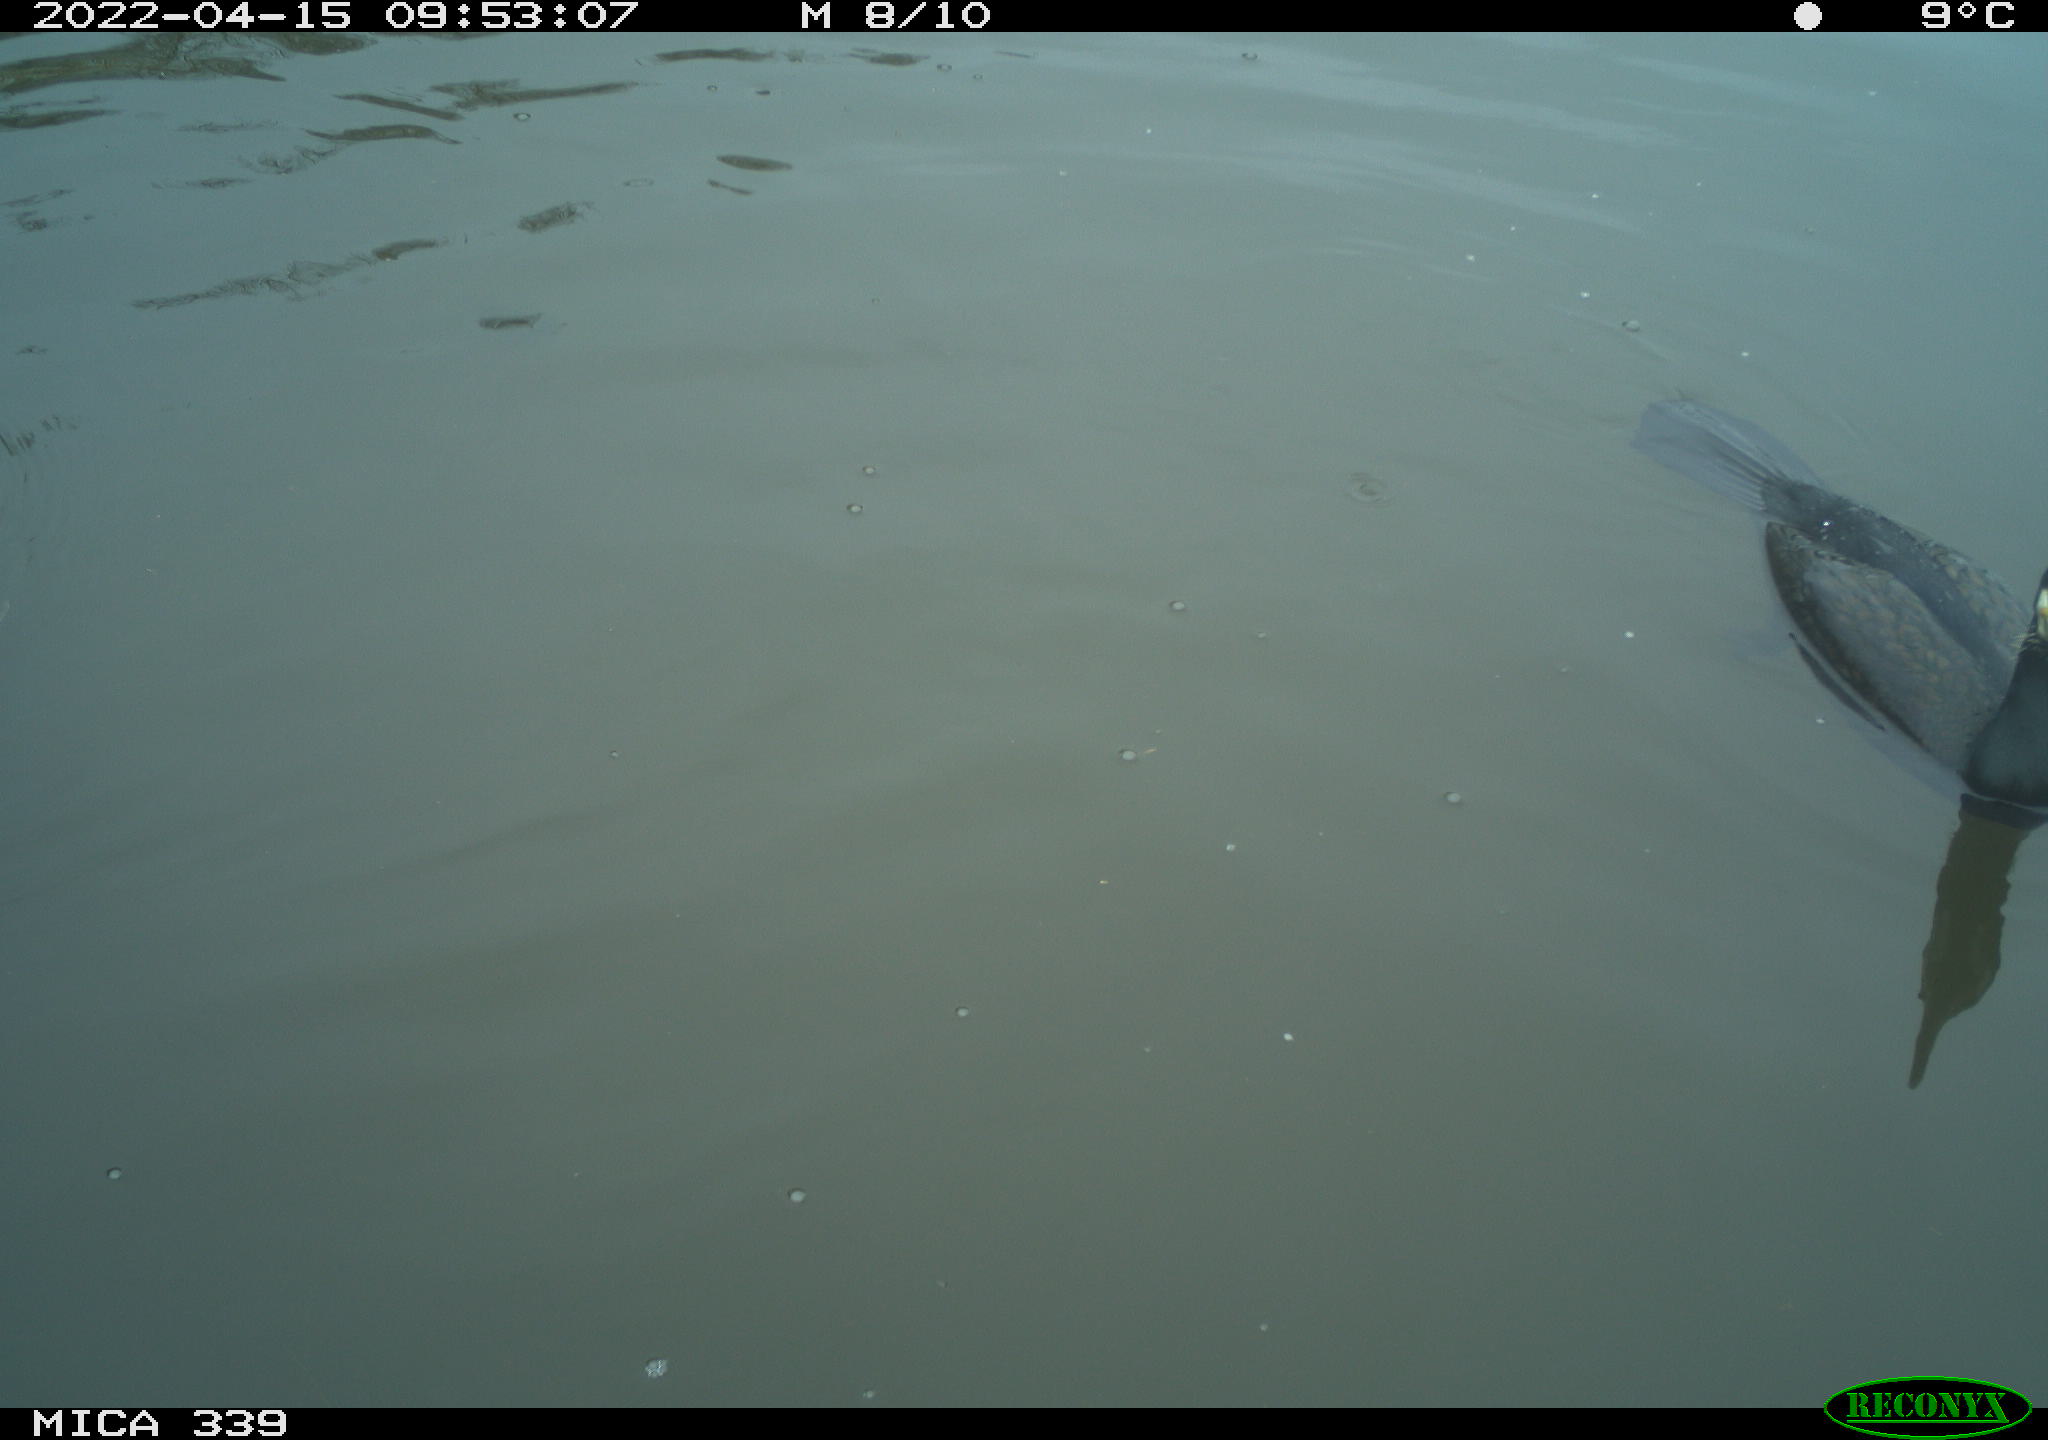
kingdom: Animalia
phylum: Chordata
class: Aves
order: Suliformes
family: Phalacrocoracidae
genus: Phalacrocorax
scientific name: Phalacrocorax carbo
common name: Great cormorant
